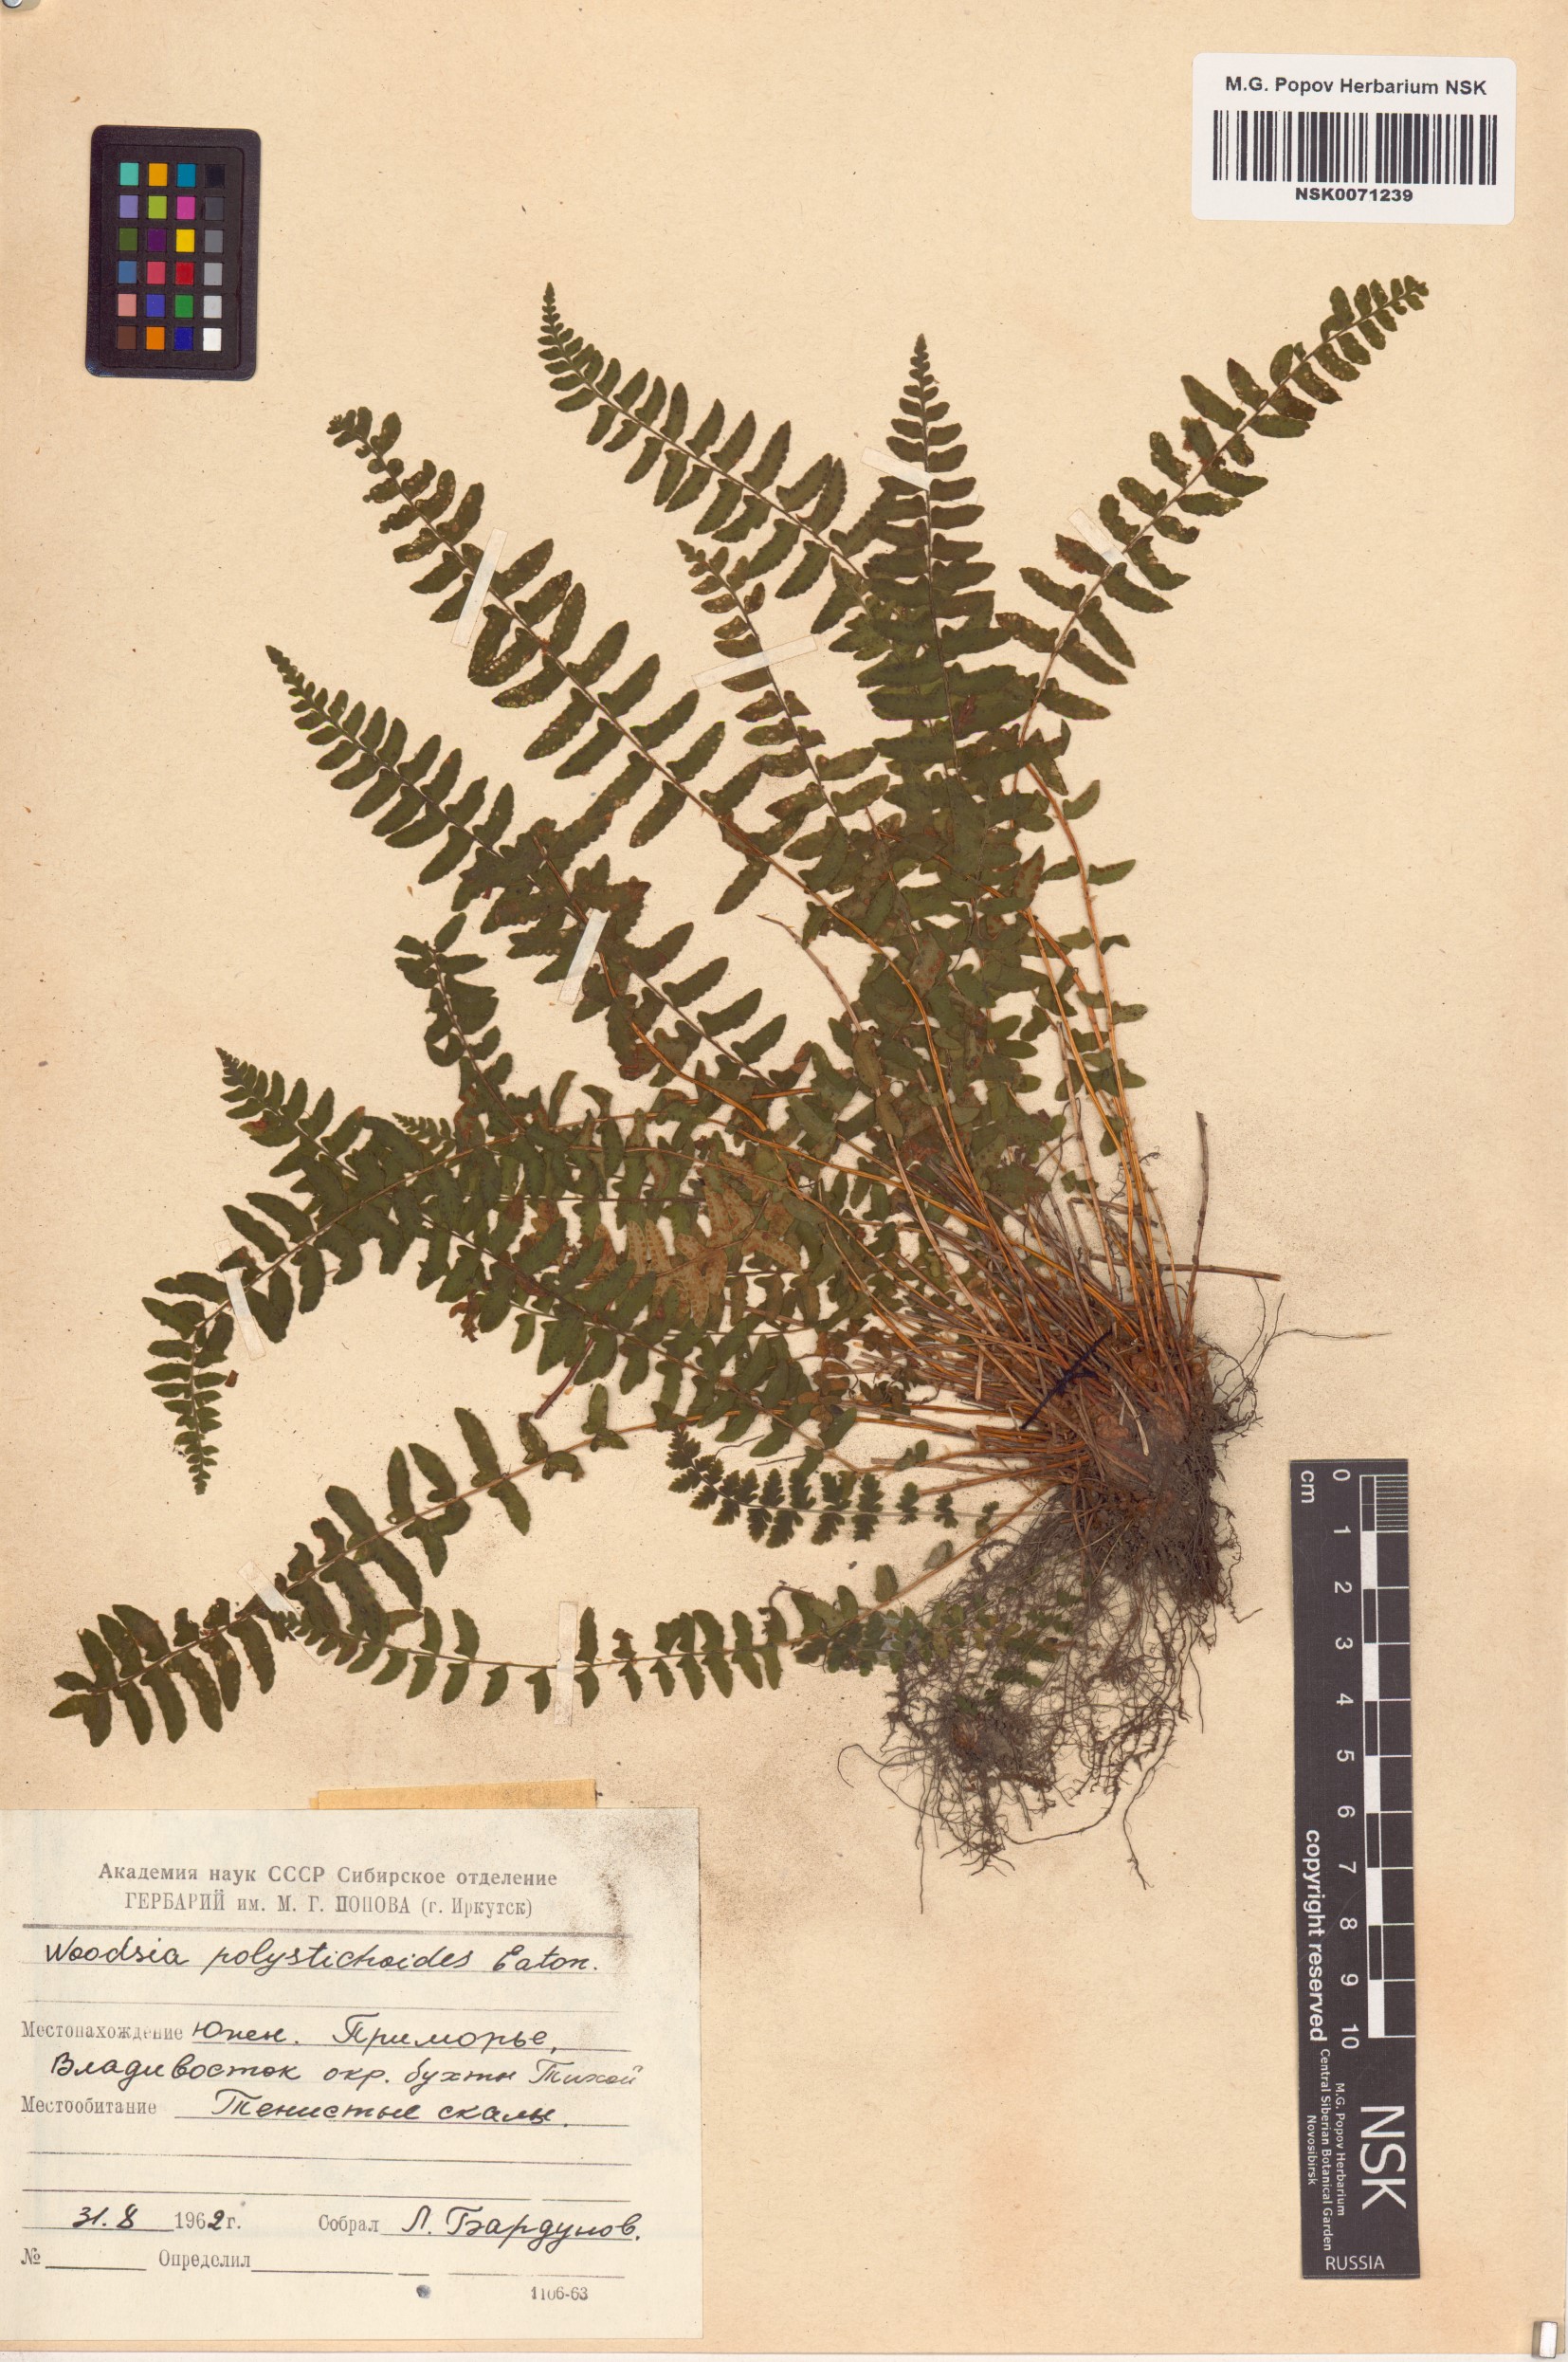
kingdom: Plantae
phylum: Tracheophyta
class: Polypodiopsida
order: Polypodiales
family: Woodsiaceae
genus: Woodsia
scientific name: Woodsia polystichoides
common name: Holly fern woodsia
